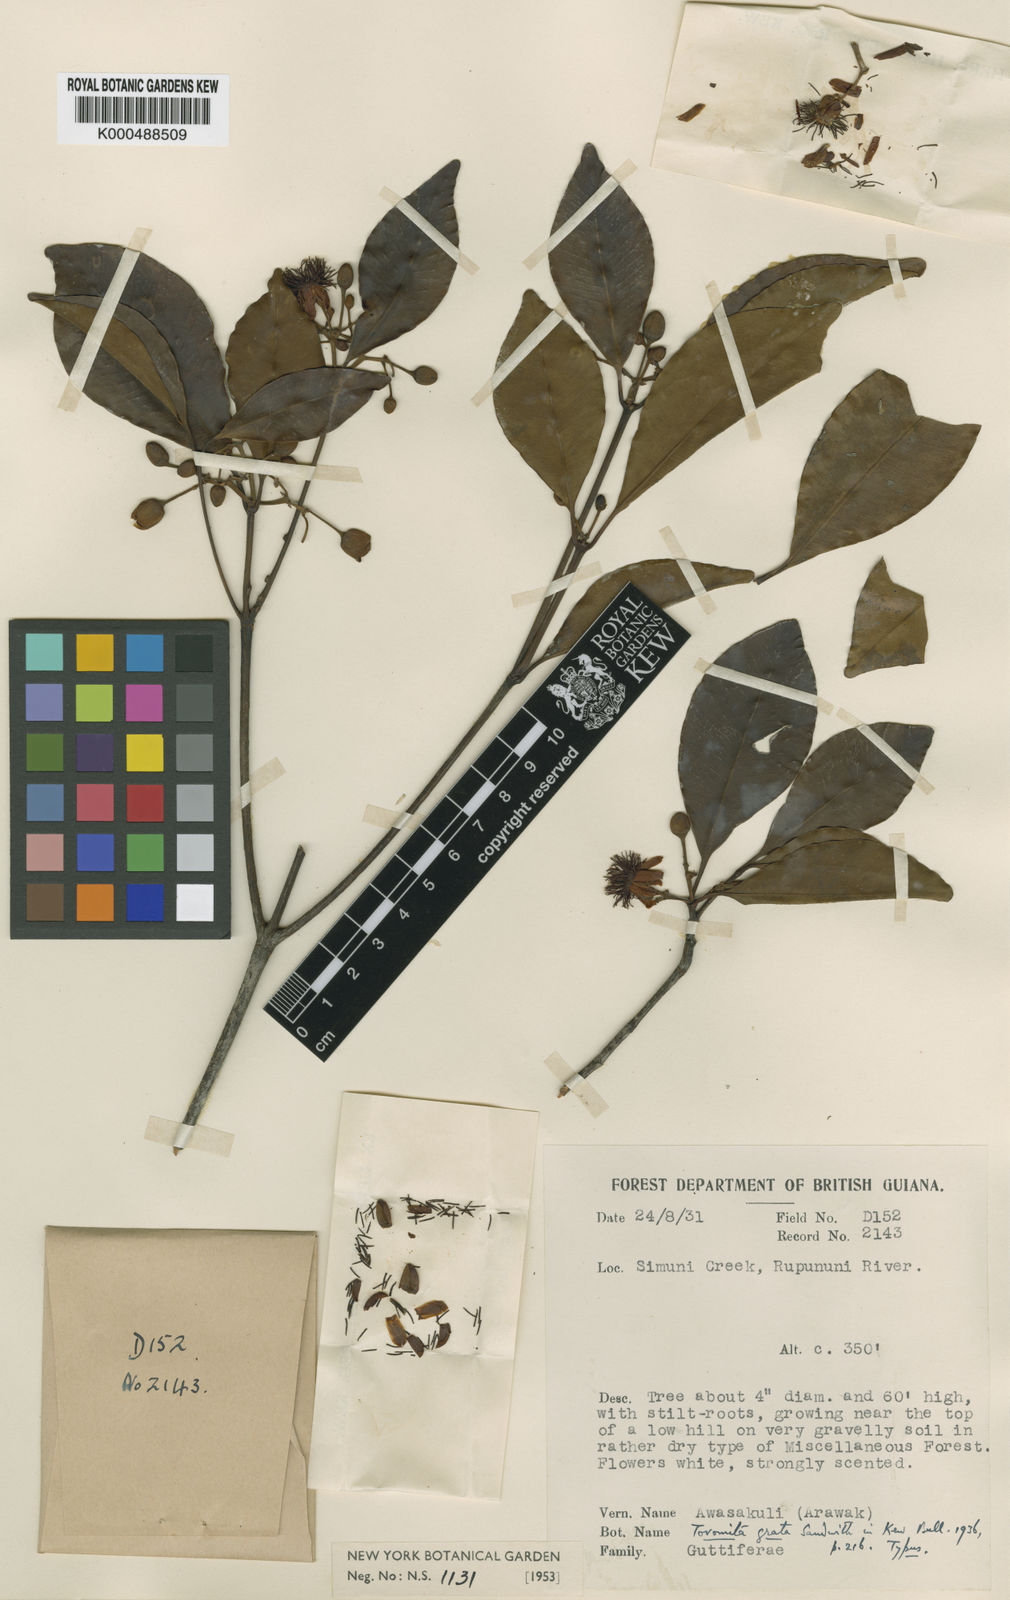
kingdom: Plantae
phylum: Tracheophyta
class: Magnoliopsida
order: Malpighiales
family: Clusiaceae
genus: Tovomita
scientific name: Tovomita grata
